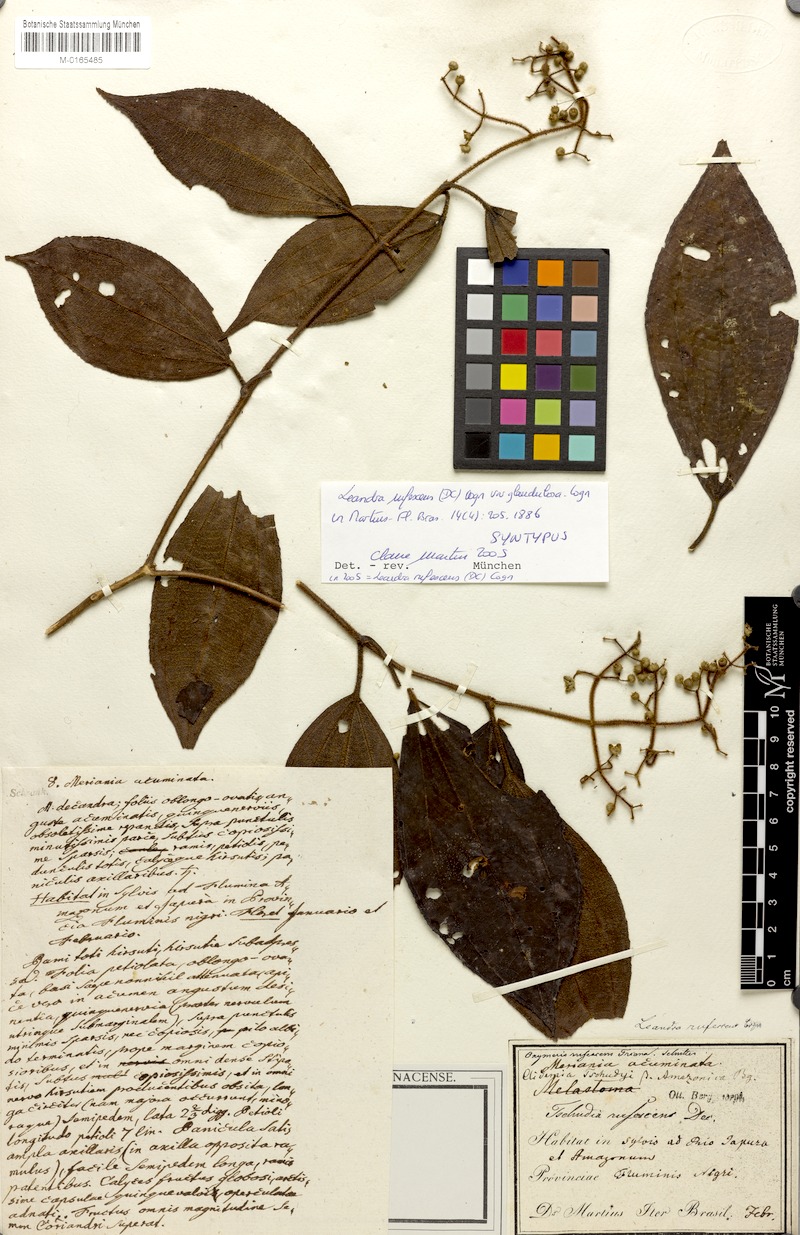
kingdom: Plantae
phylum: Tracheophyta
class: Magnoliopsida
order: Myrtales
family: Melastomataceae
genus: Miconia
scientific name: Miconia asperiuscula
